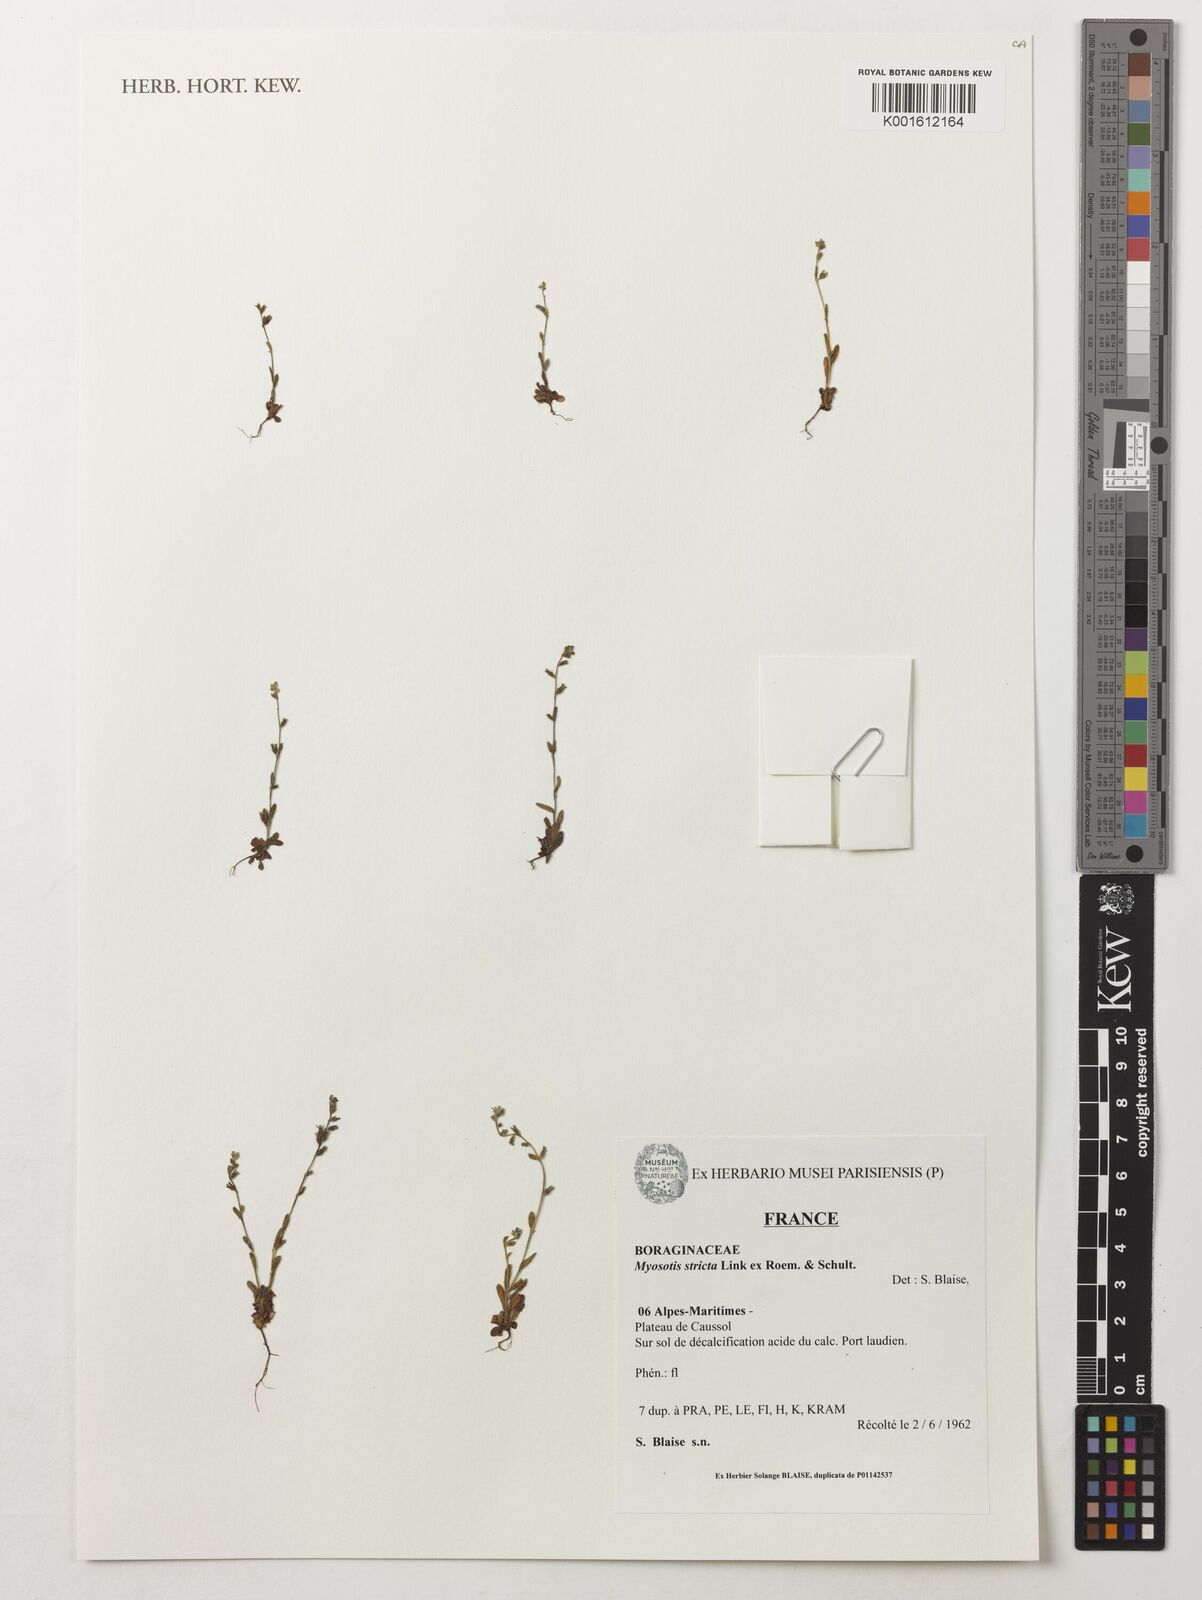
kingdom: Plantae
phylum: Tracheophyta
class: Magnoliopsida
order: Boraginales
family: Boraginaceae
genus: Myosotis
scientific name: Myosotis stricta
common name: Strict forget-me-not
